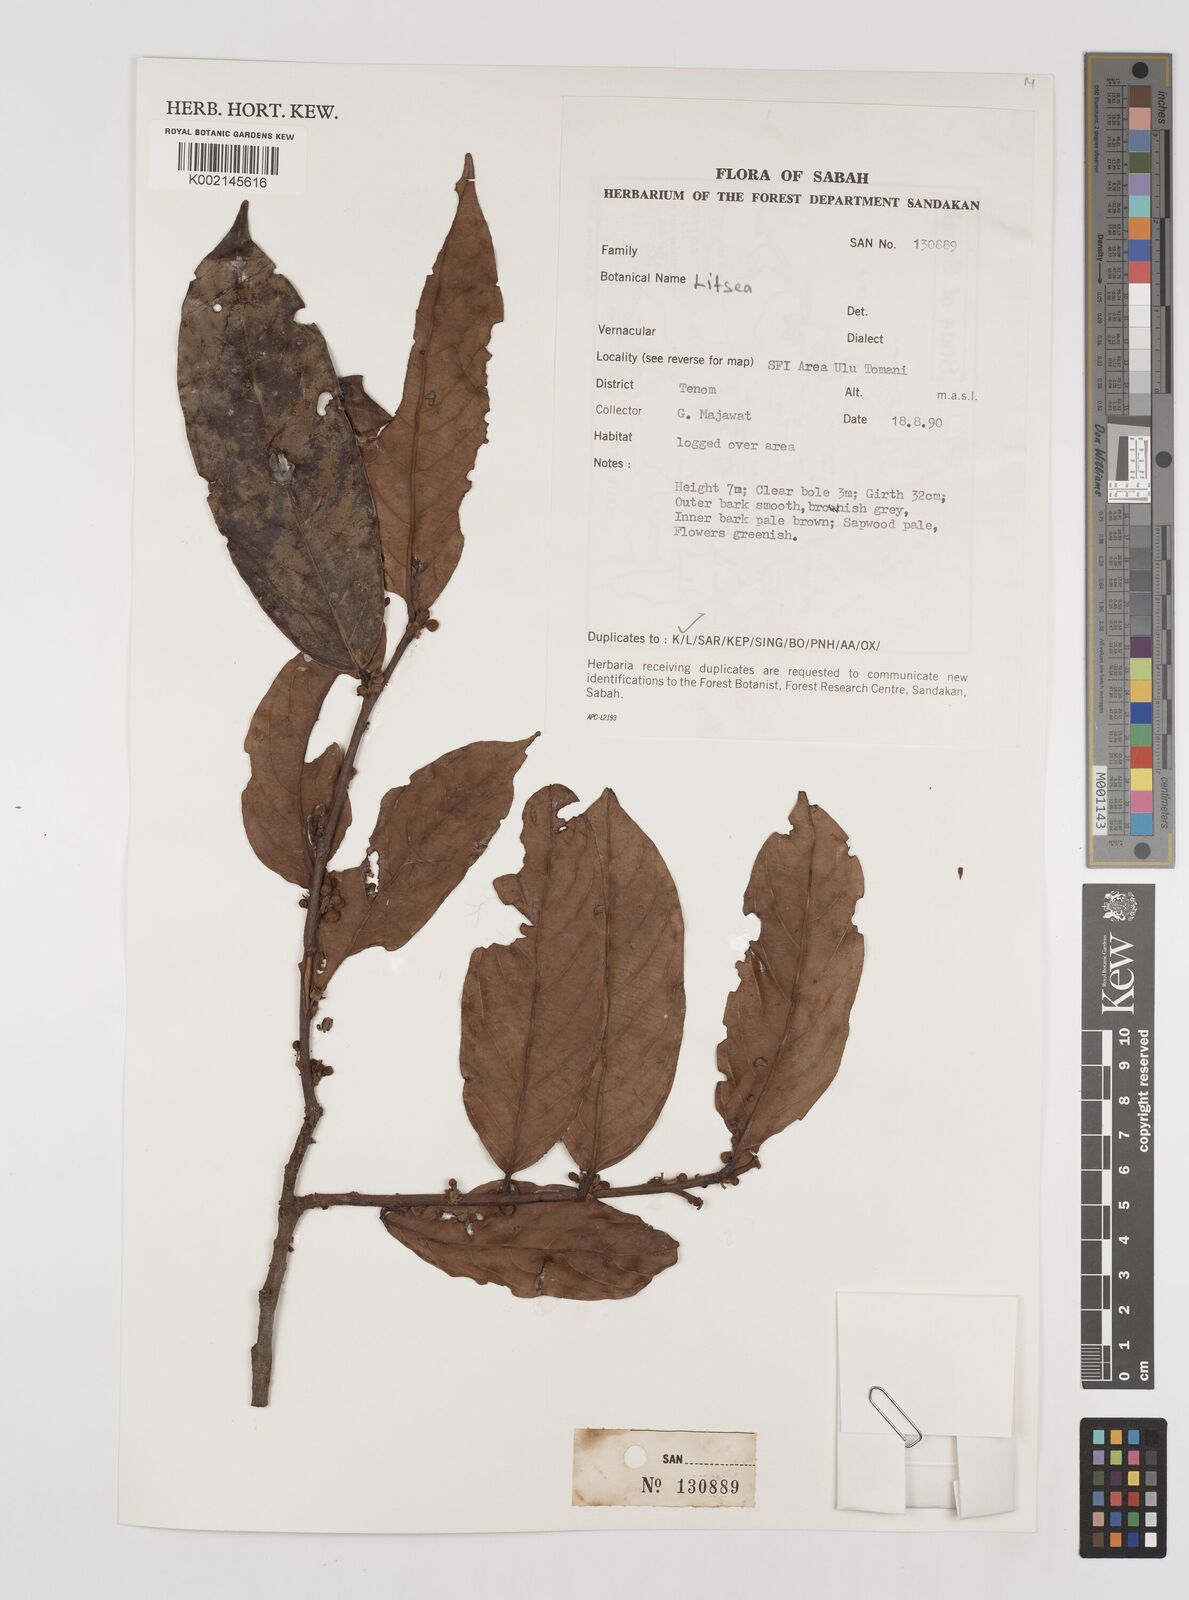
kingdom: Plantae
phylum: Tracheophyta
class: Magnoliopsida
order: Laurales
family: Lauraceae
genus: Litsea
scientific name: Litsea
